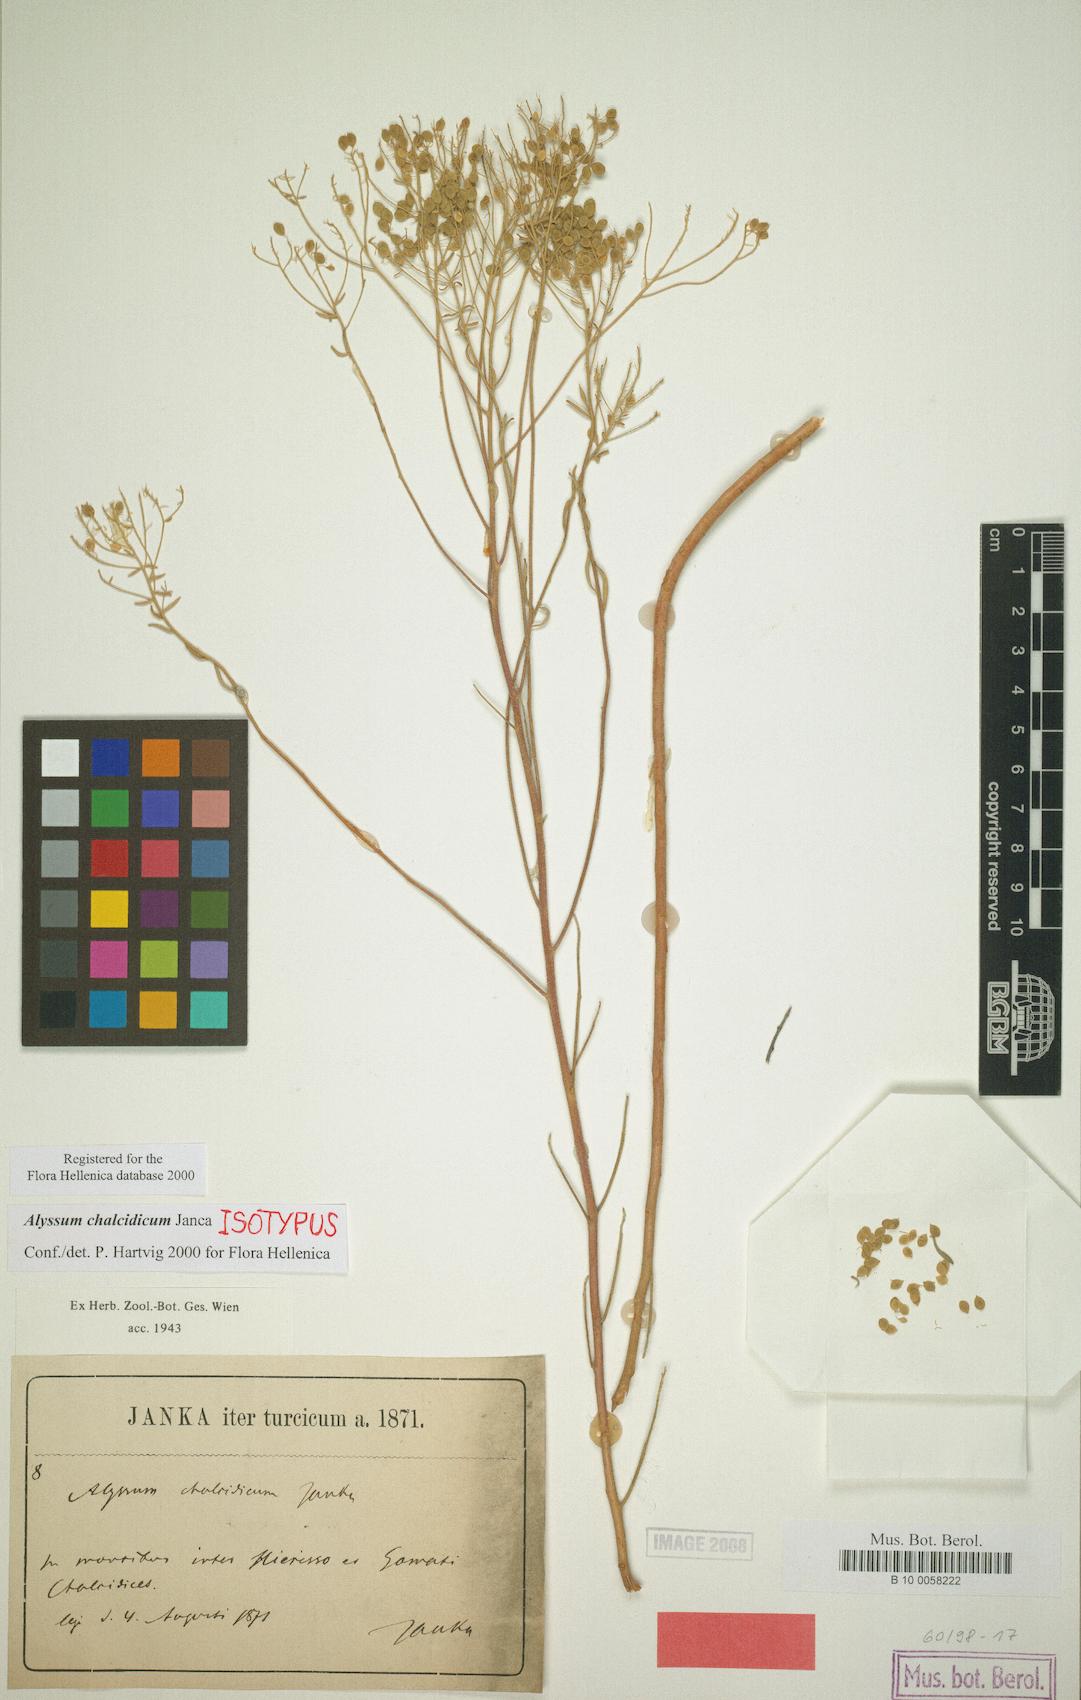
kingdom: Plantae
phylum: Tracheophyta
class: Magnoliopsida
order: Brassicales
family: Brassicaceae
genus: Odontarrhena
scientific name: Odontarrhena chalcidica
